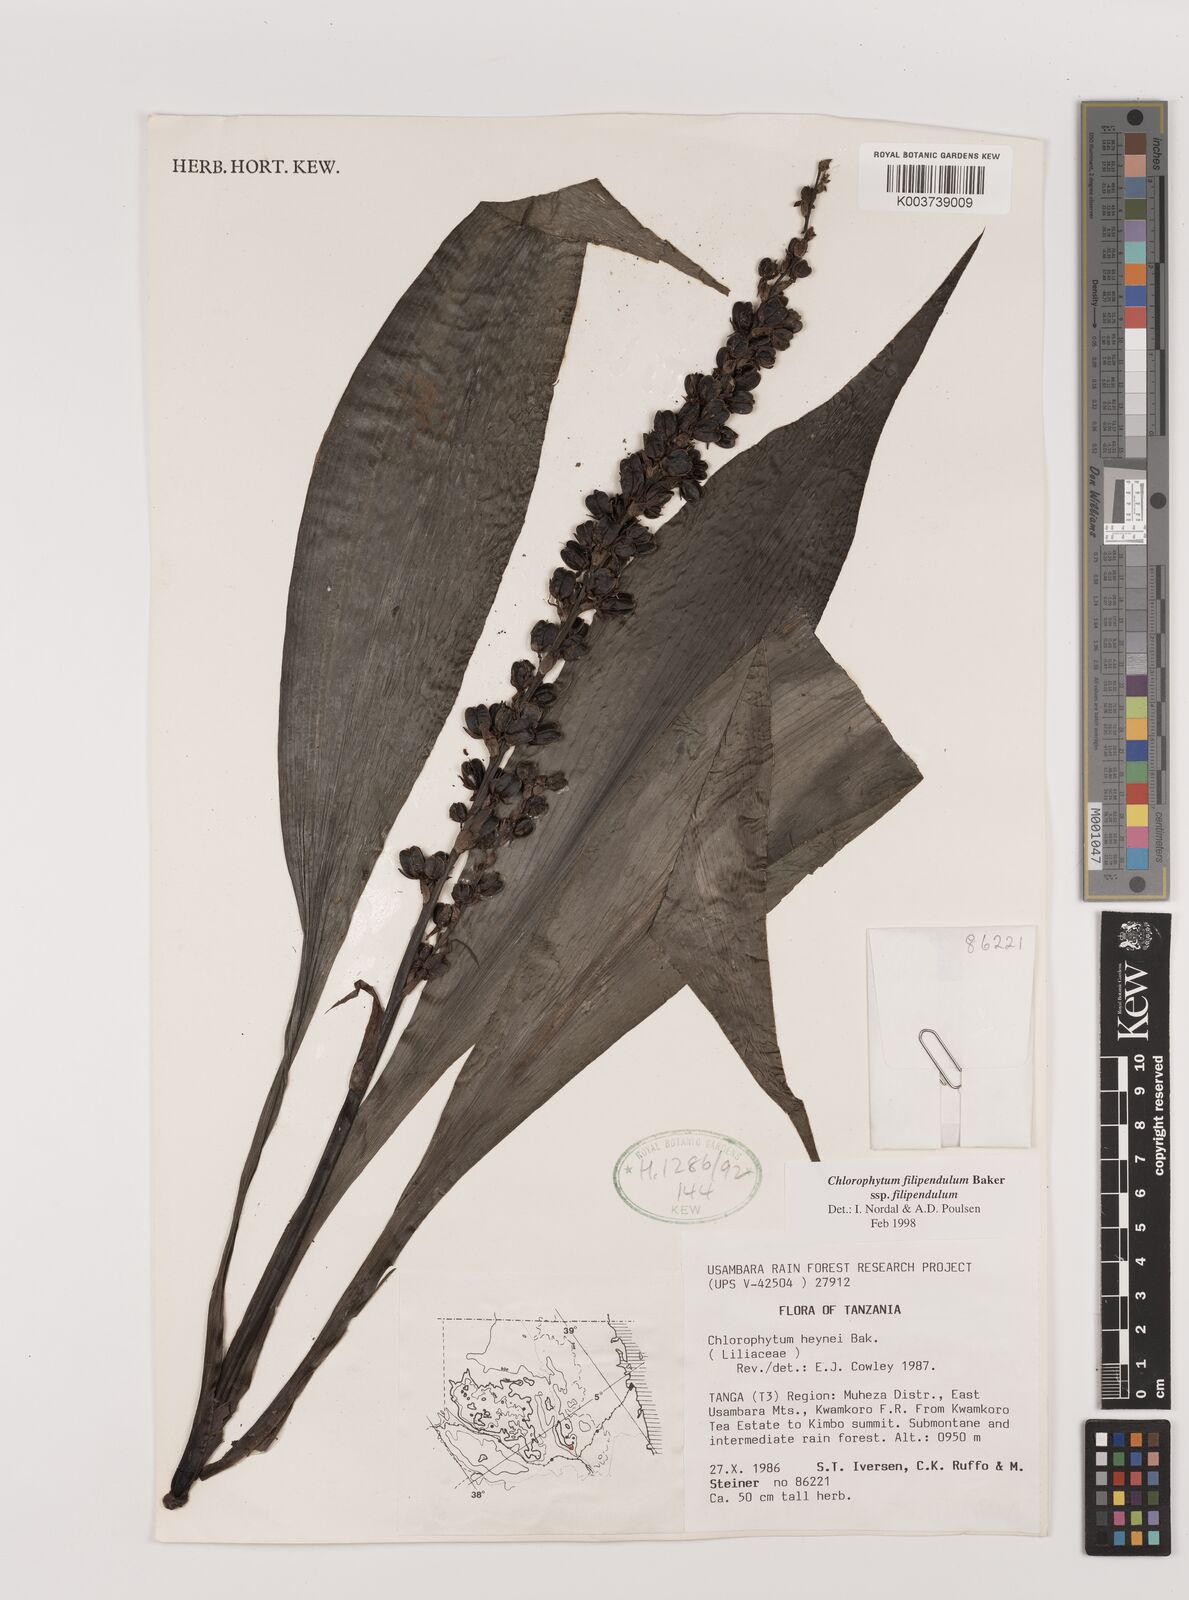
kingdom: Plantae
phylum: Tracheophyta
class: Liliopsida
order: Asparagales
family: Asparagaceae
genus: Chlorophytum
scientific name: Chlorophytum filipendulum
